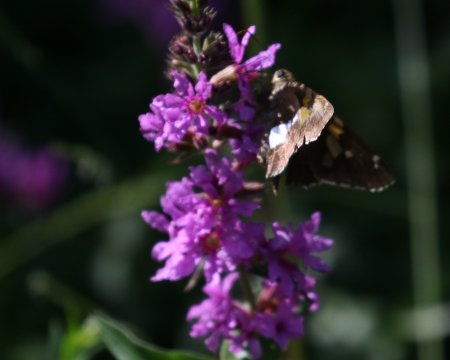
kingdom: Animalia
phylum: Arthropoda
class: Insecta
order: Lepidoptera
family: Hesperiidae
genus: Epargyreus
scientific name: Epargyreus clarus
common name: Silver-spotted Skipper
